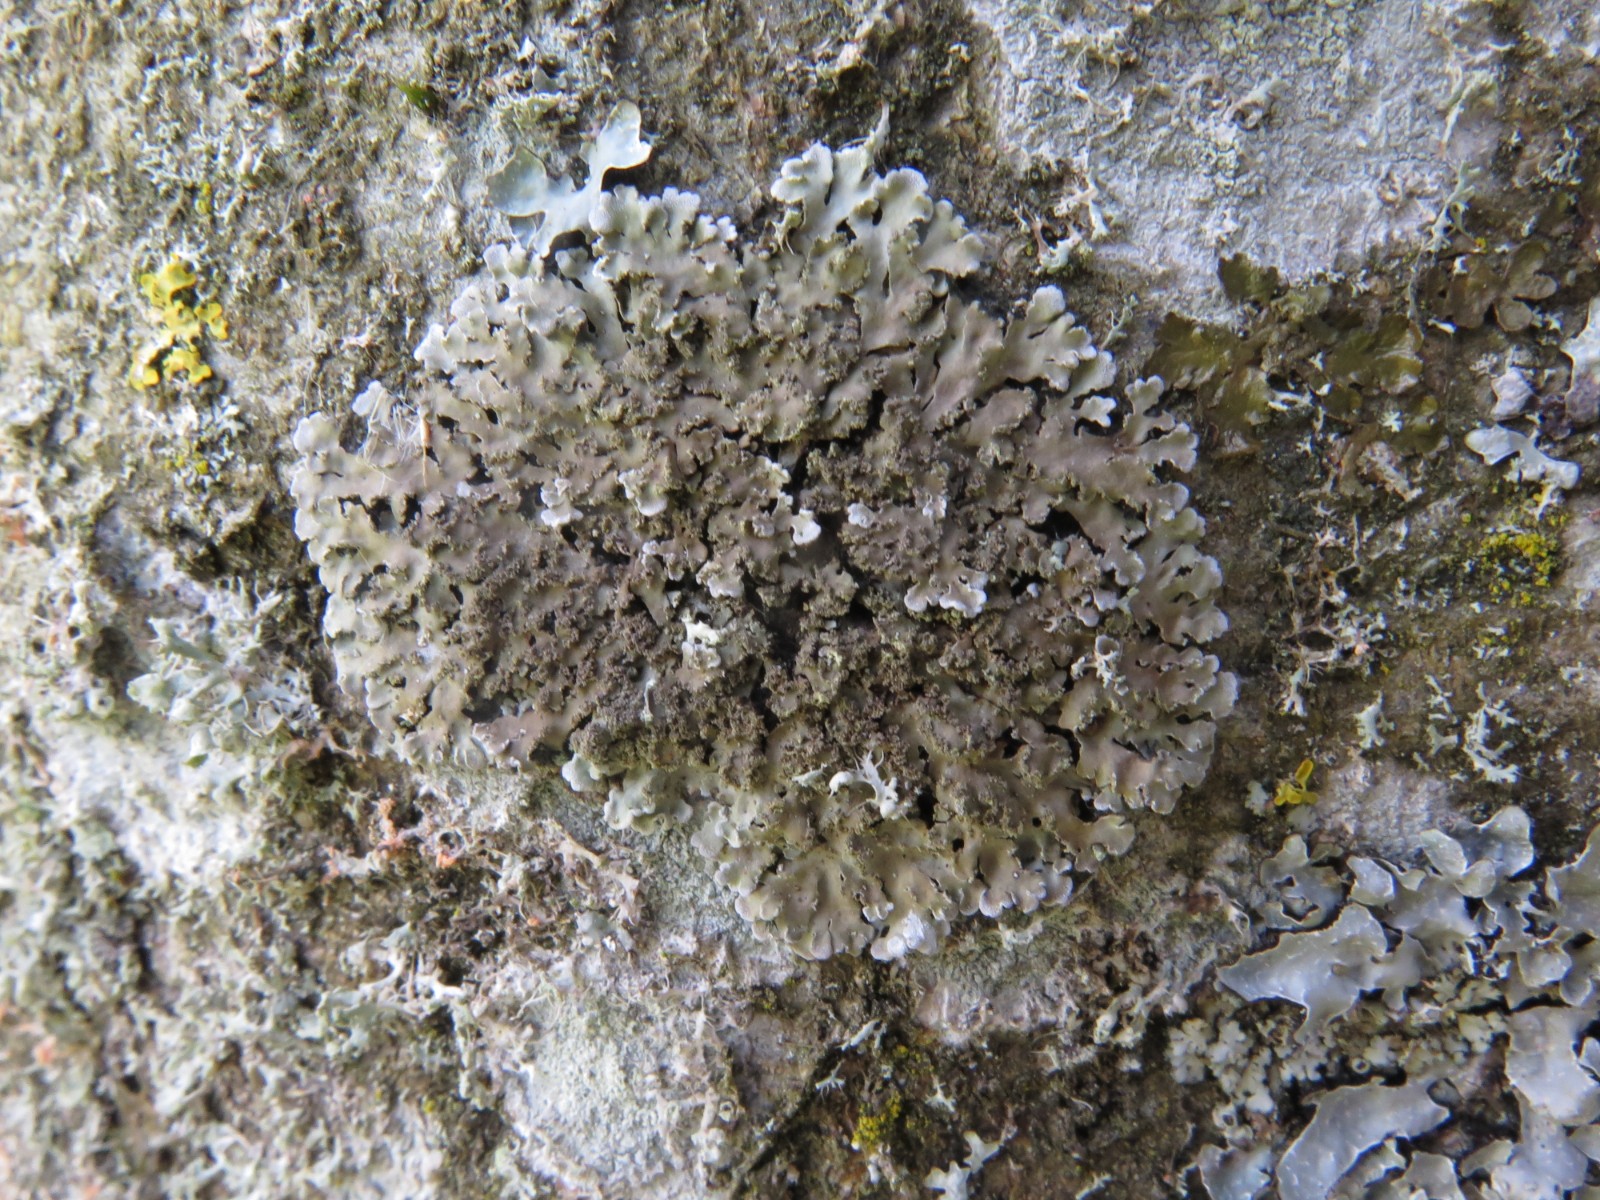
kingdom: Fungi
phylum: Ascomycota
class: Lecanoromycetes
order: Caliciales
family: Physciaceae
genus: Physconia
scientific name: Physconia enteroxantha
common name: grynet dugrosetlav
